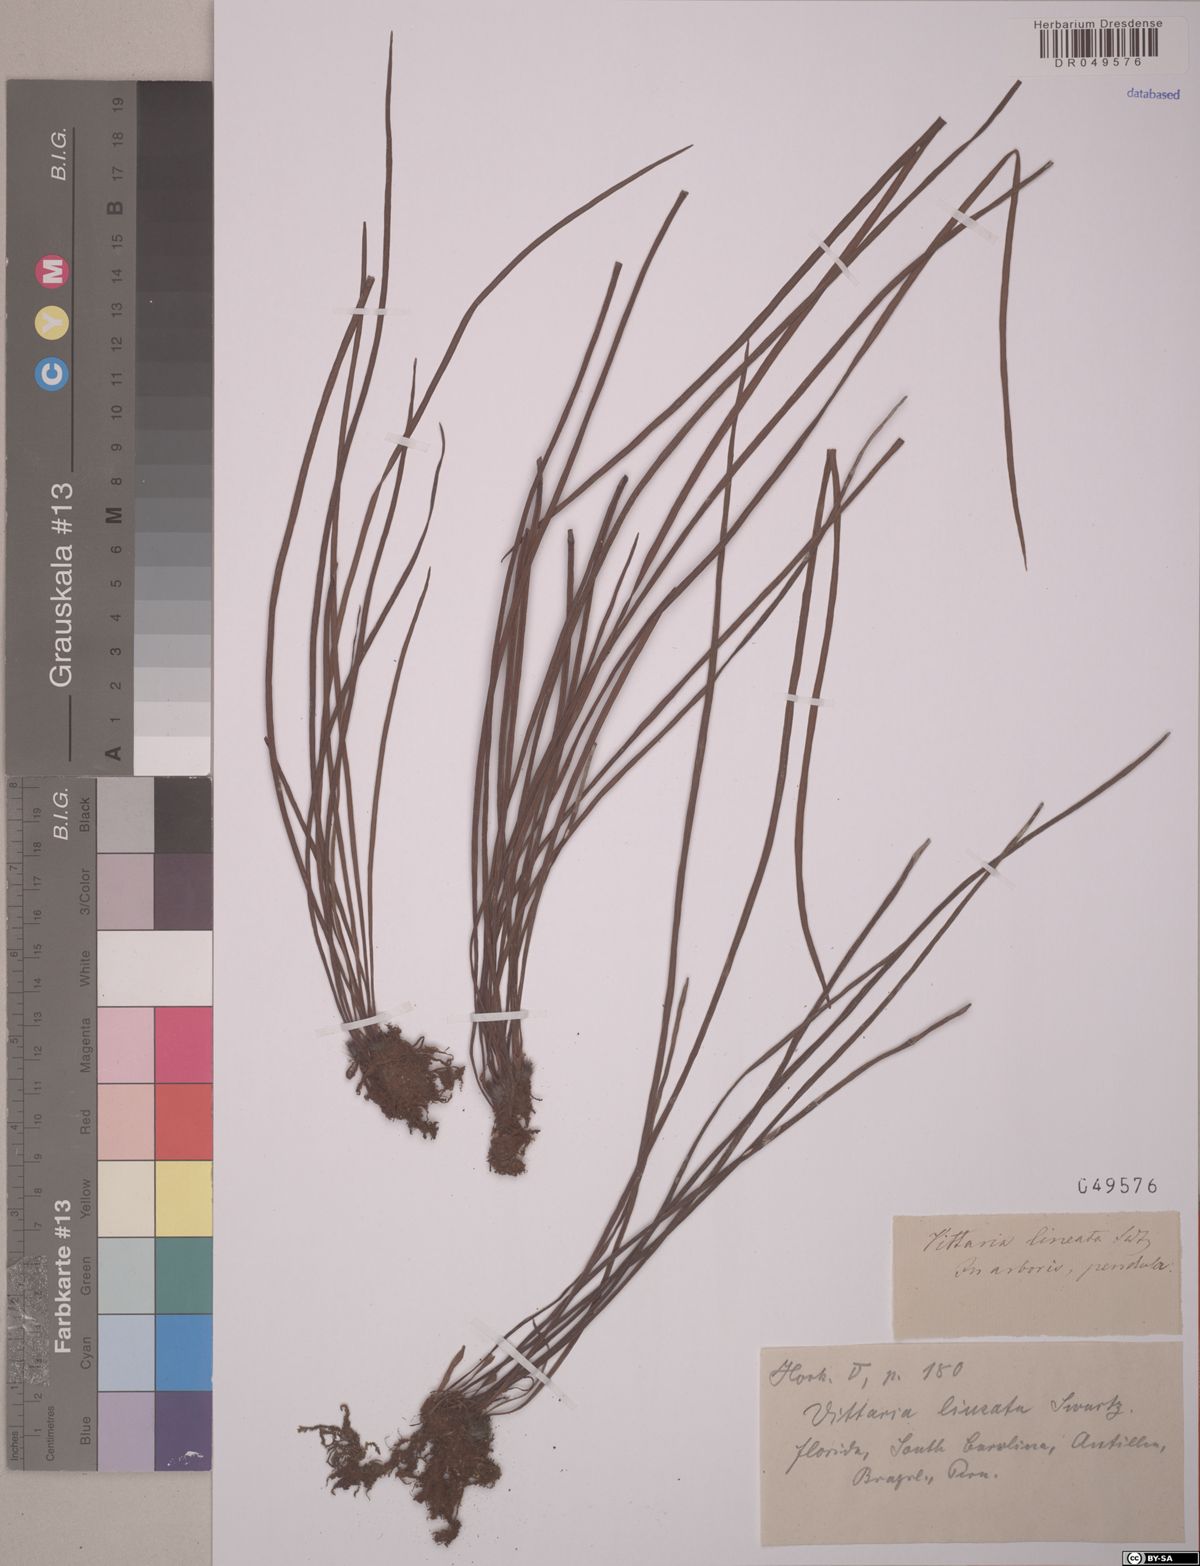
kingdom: Plantae
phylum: Tracheophyta
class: Polypodiopsida
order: Polypodiales
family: Pteridaceae
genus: Vittaria
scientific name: Vittaria lineata
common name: Shoestring fern
